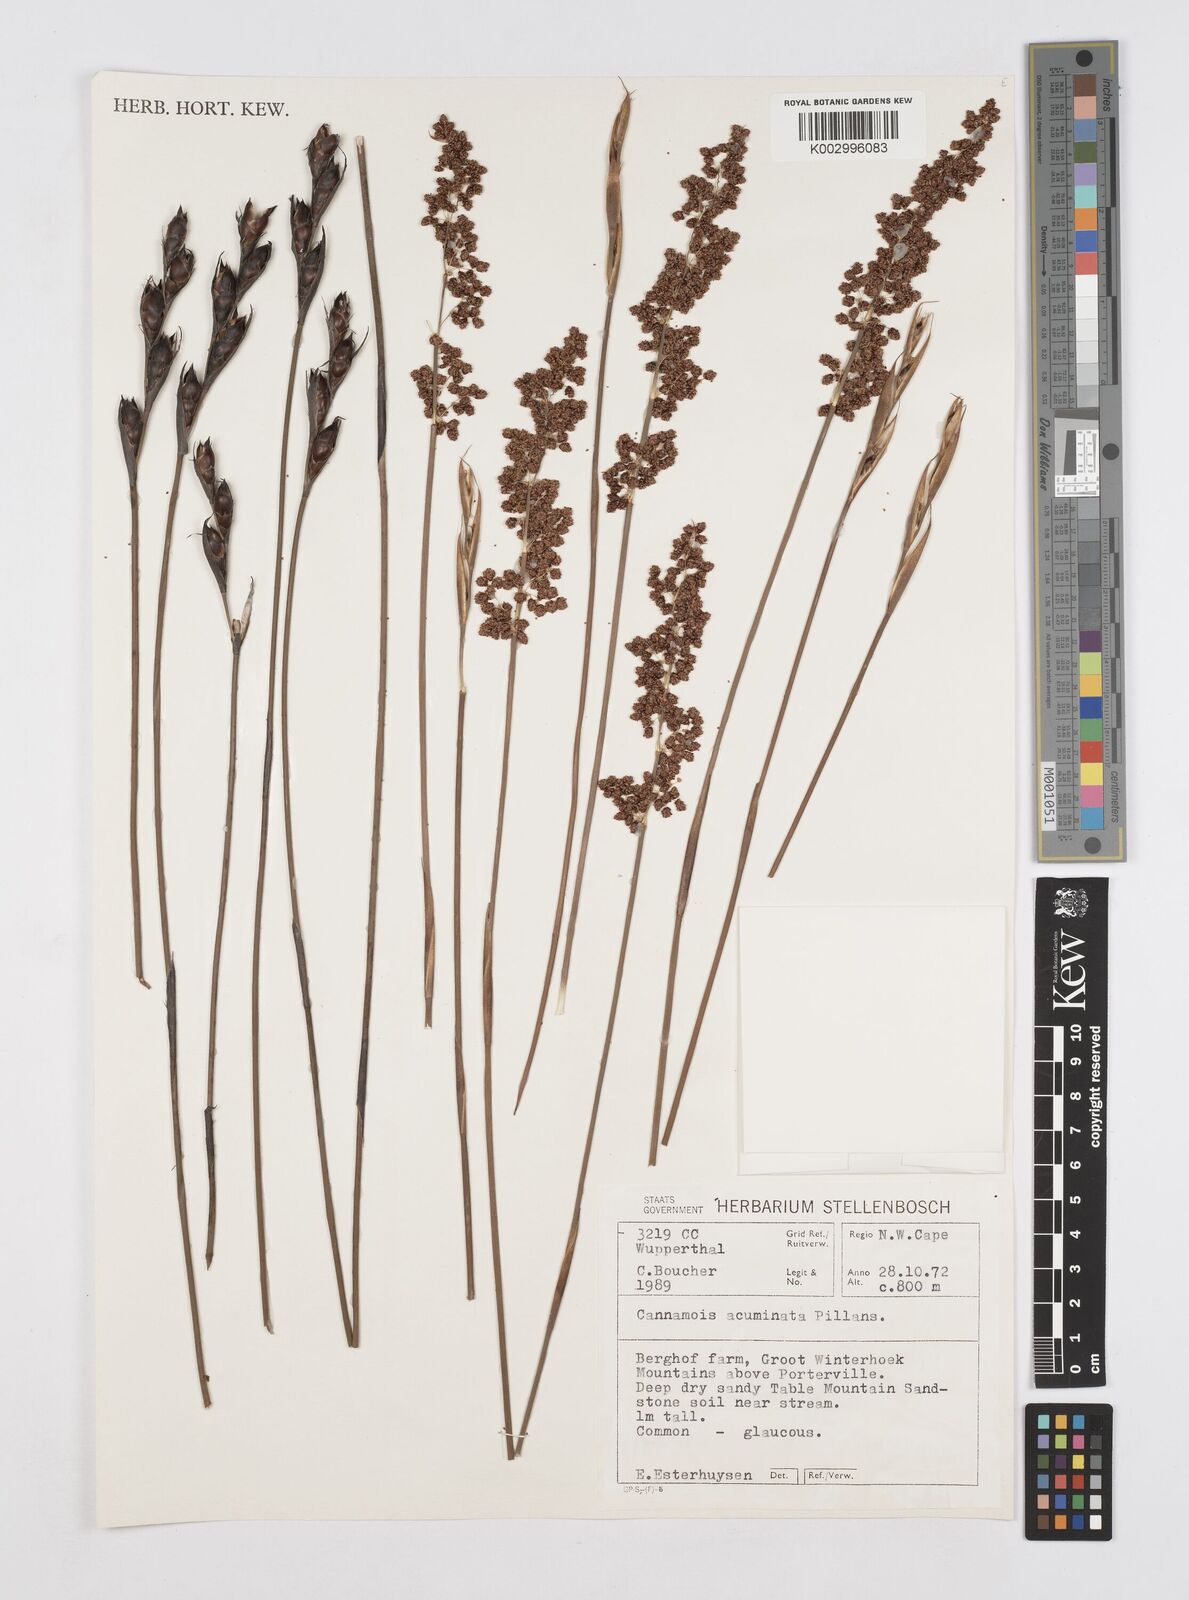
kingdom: Plantae
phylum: Tracheophyta
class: Liliopsida
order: Poales
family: Restionaceae
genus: Cannomois
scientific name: Cannomois parviflora
